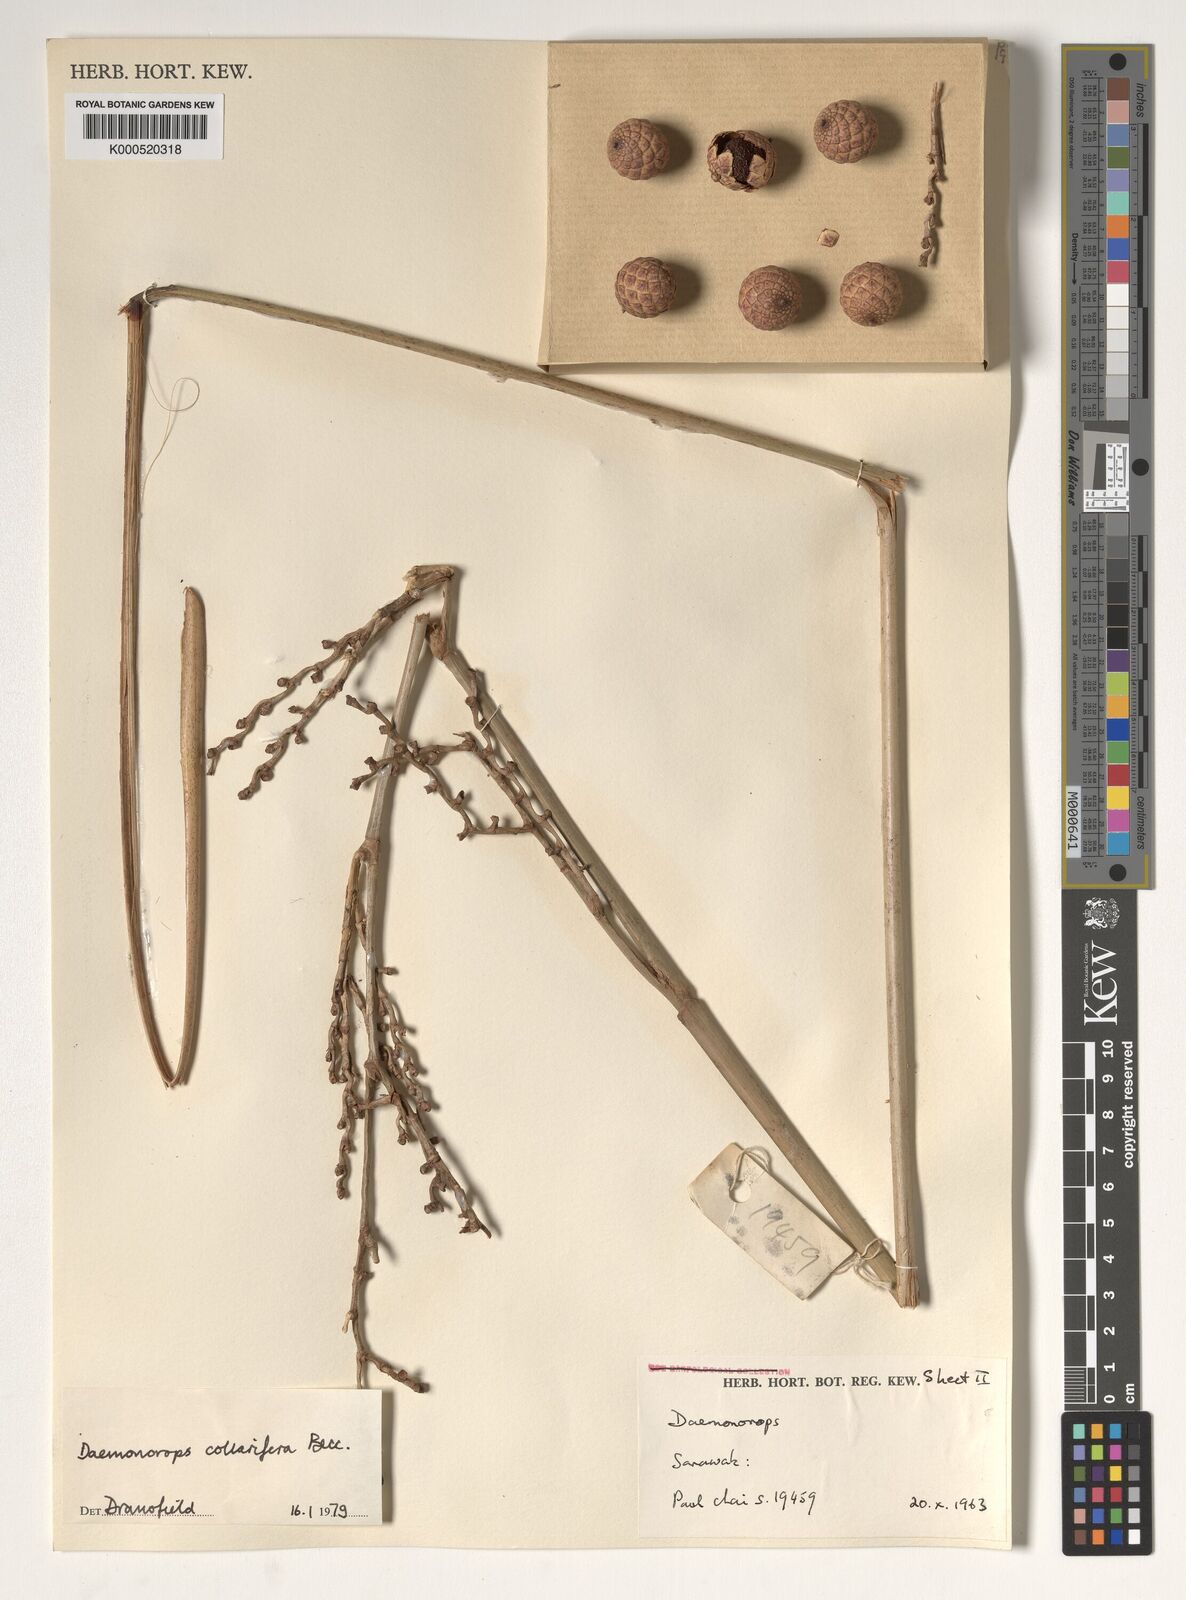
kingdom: Plantae
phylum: Tracheophyta
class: Liliopsida
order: Arecales
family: Arecaceae
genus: Calamus
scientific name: Calamus geniculatus
